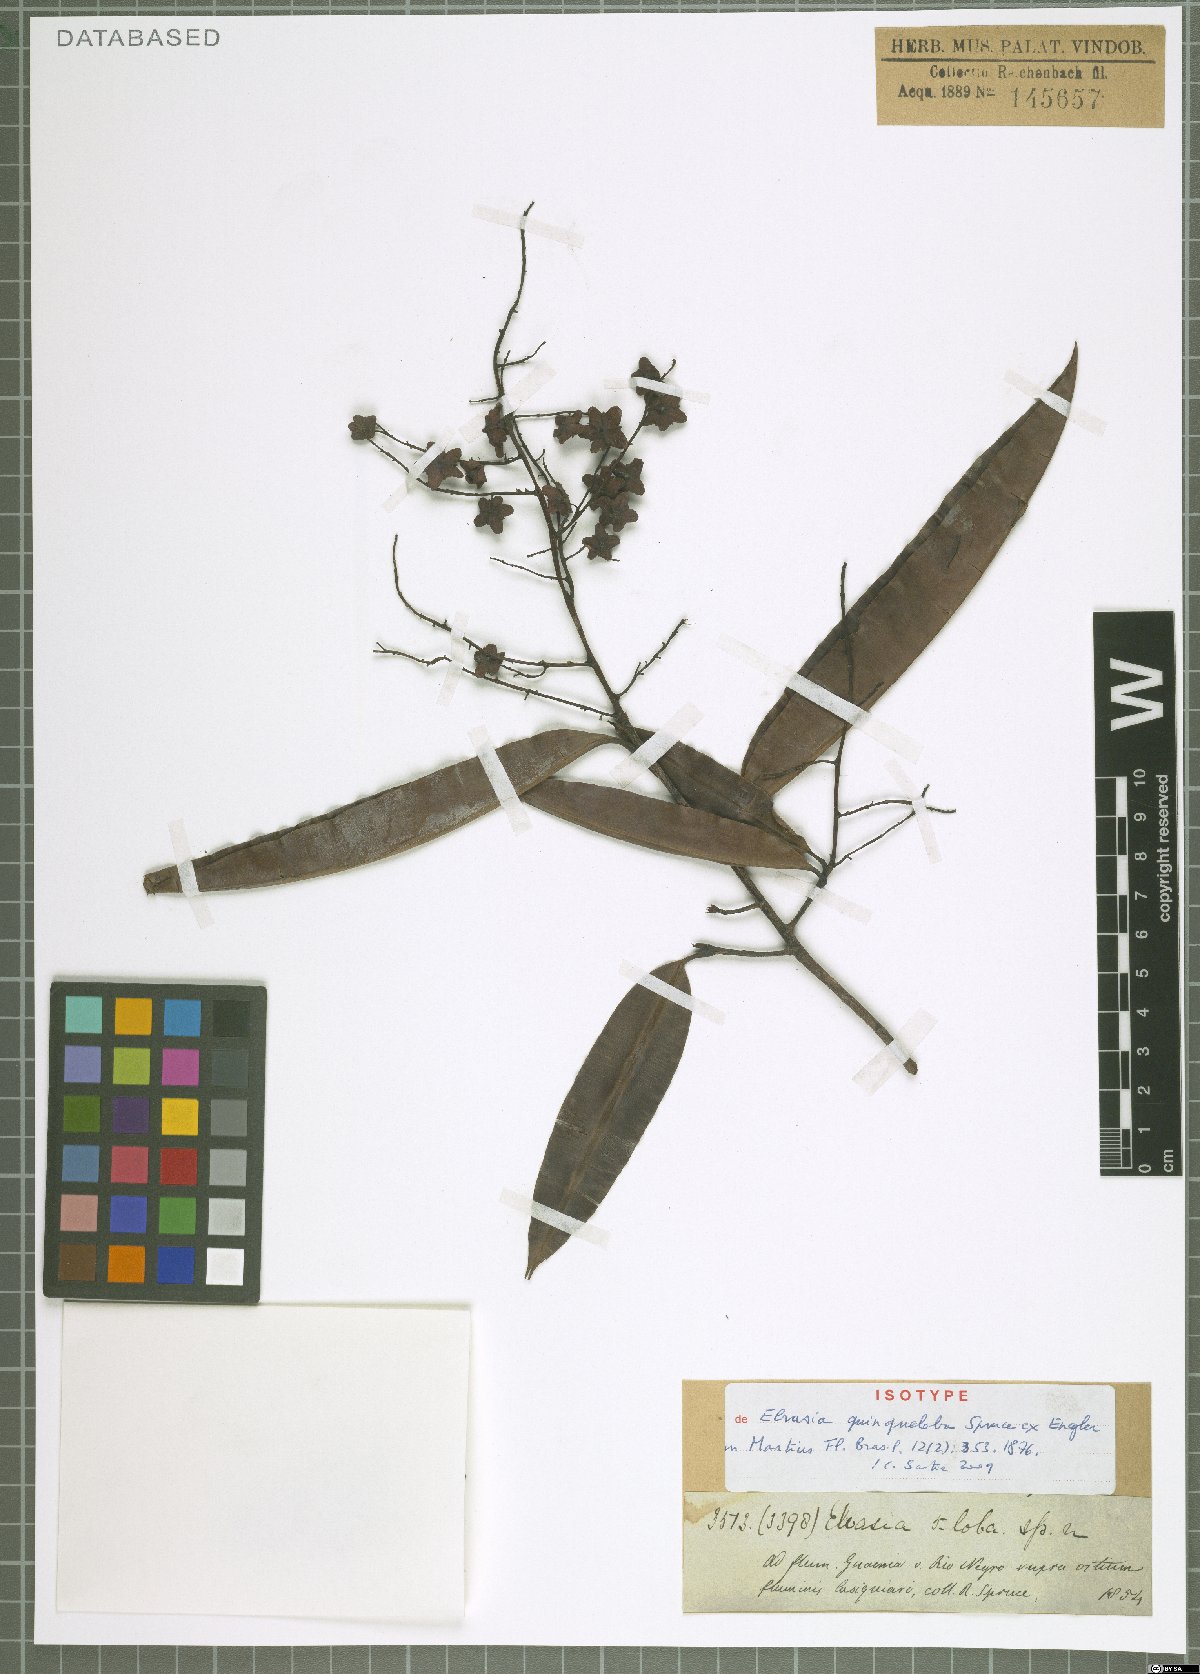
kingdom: Plantae
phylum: Tracheophyta
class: Magnoliopsida
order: Malpighiales
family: Ochnaceae
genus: Elvasia
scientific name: Elvasia quinqueloba
